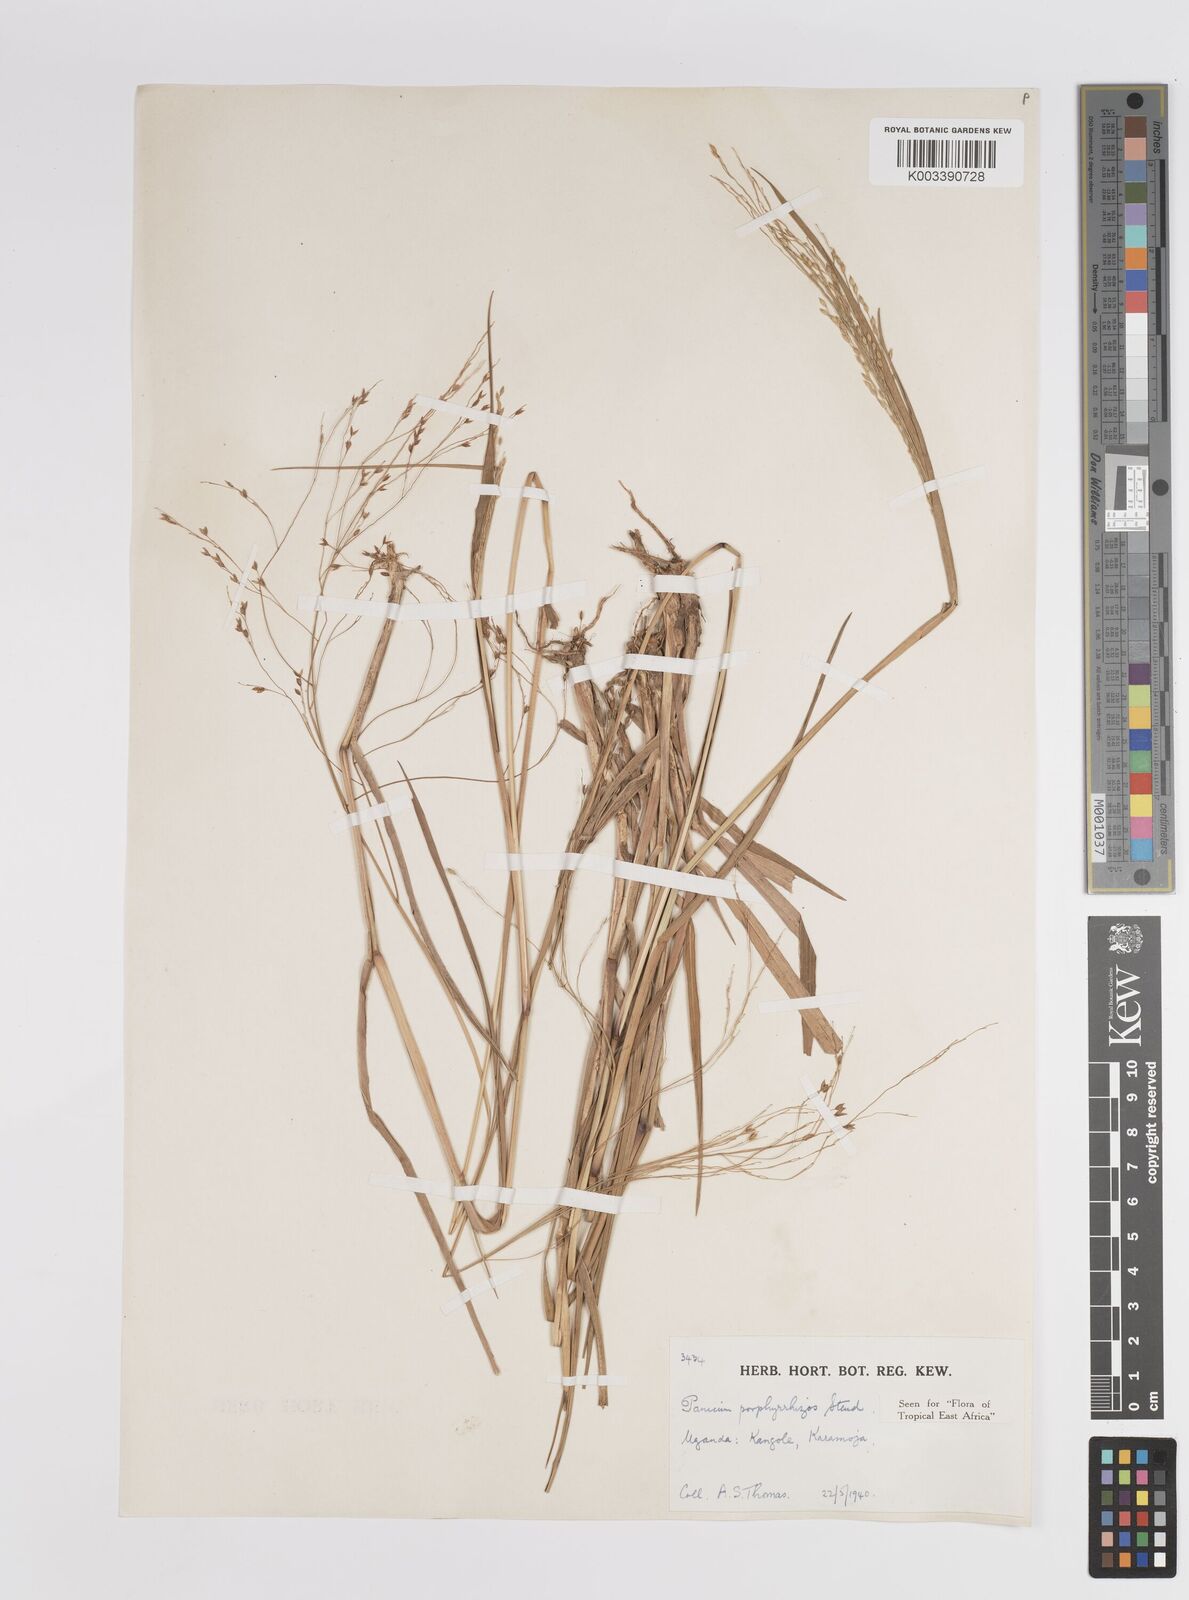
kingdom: Plantae
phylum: Tracheophyta
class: Liliopsida
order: Poales
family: Poaceae
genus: Panicum
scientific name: Panicum porphyrrhizos
